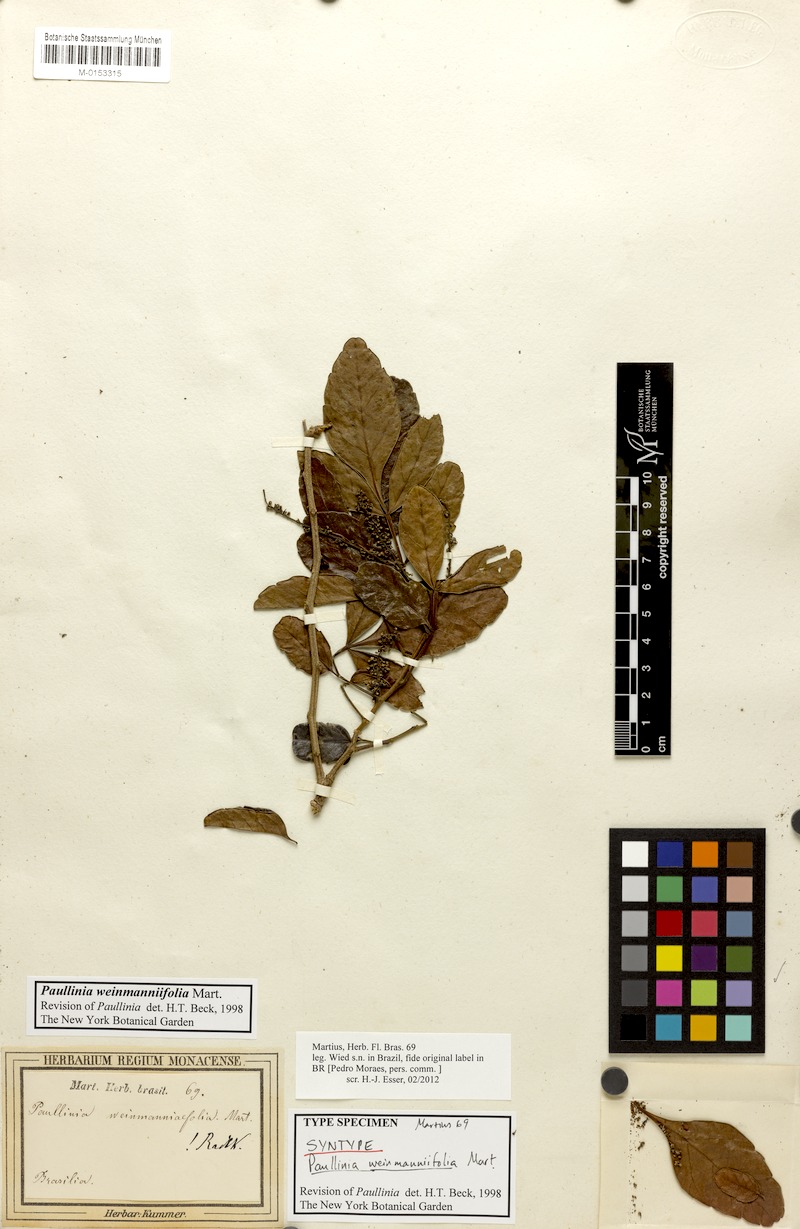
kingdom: Plantae
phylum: Tracheophyta
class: Magnoliopsida
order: Sapindales
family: Sapindaceae
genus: Paullinia
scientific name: Paullinia weinmanniifolia
